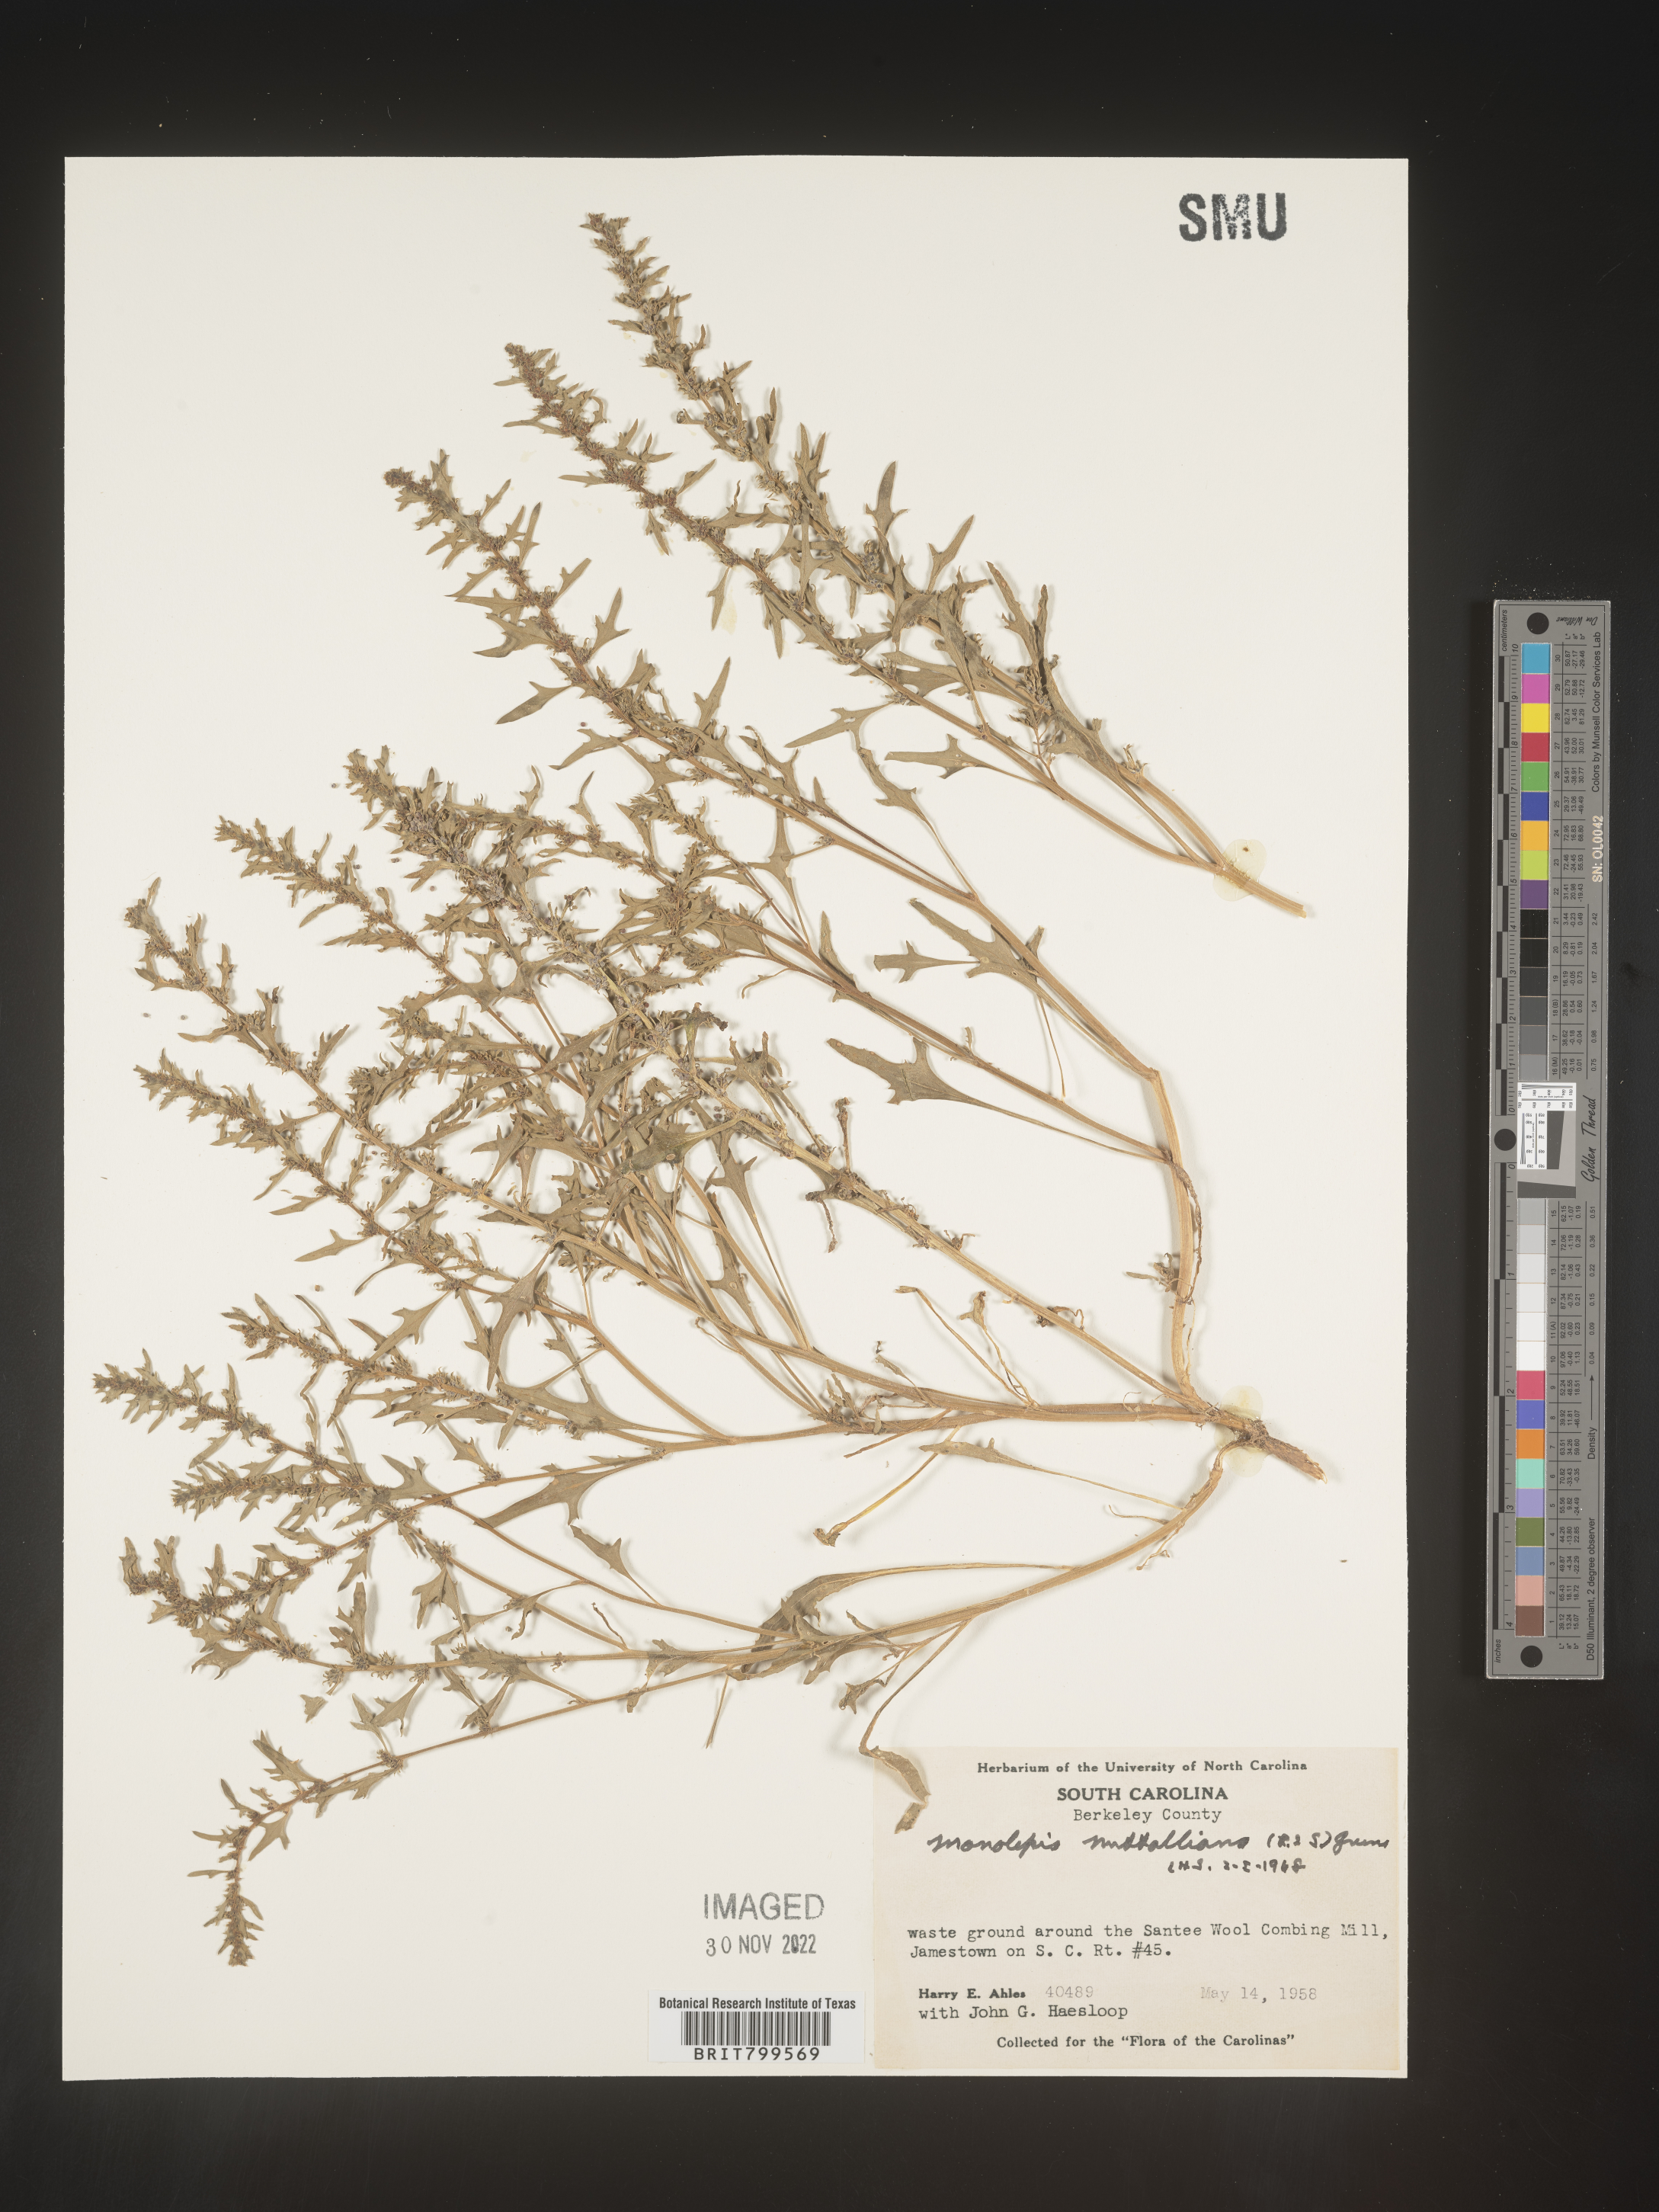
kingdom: Plantae
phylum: Tracheophyta
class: Magnoliopsida
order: Caryophyllales
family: Amaranthaceae
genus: Blitum
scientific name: Blitum
